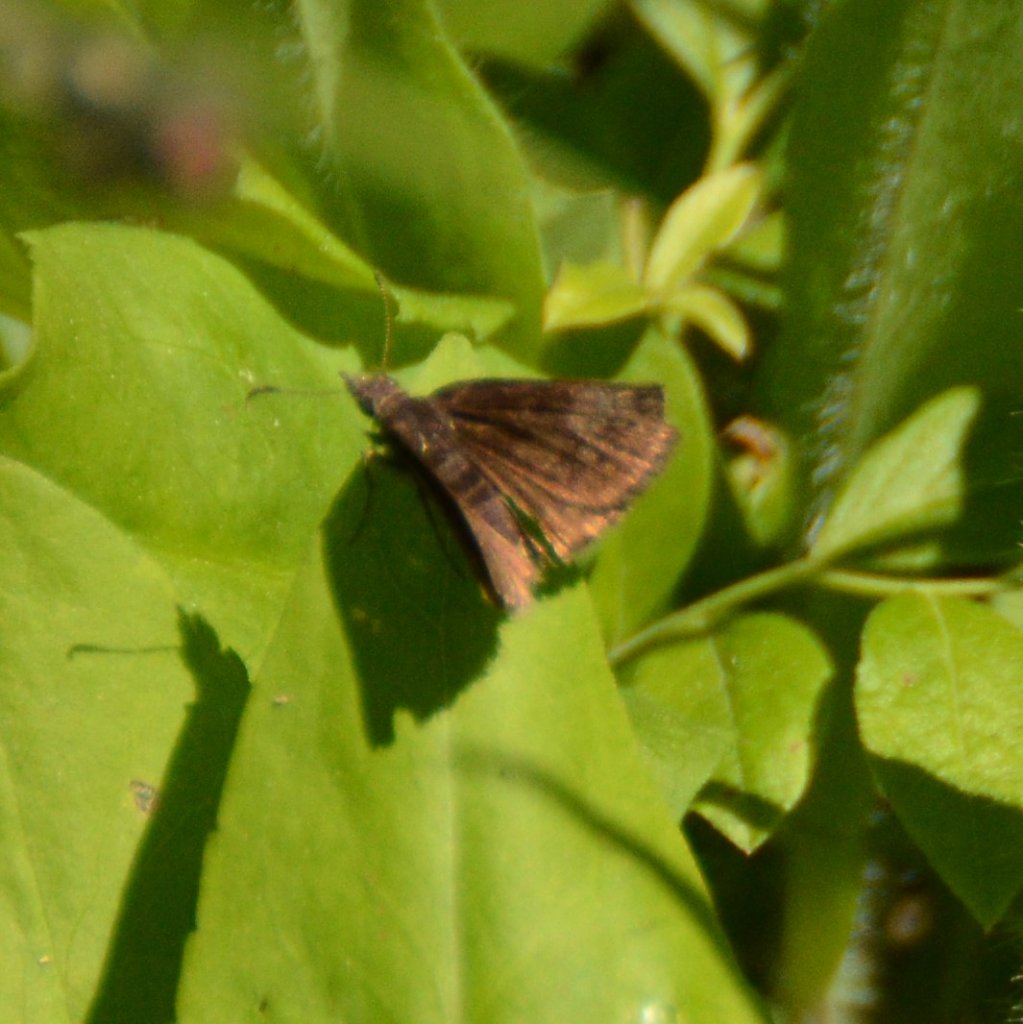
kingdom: Animalia
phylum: Arthropoda
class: Insecta
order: Lepidoptera
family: Hesperiidae
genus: Erynnis
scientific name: Erynnis icelus
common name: Dreamy Duskywing
